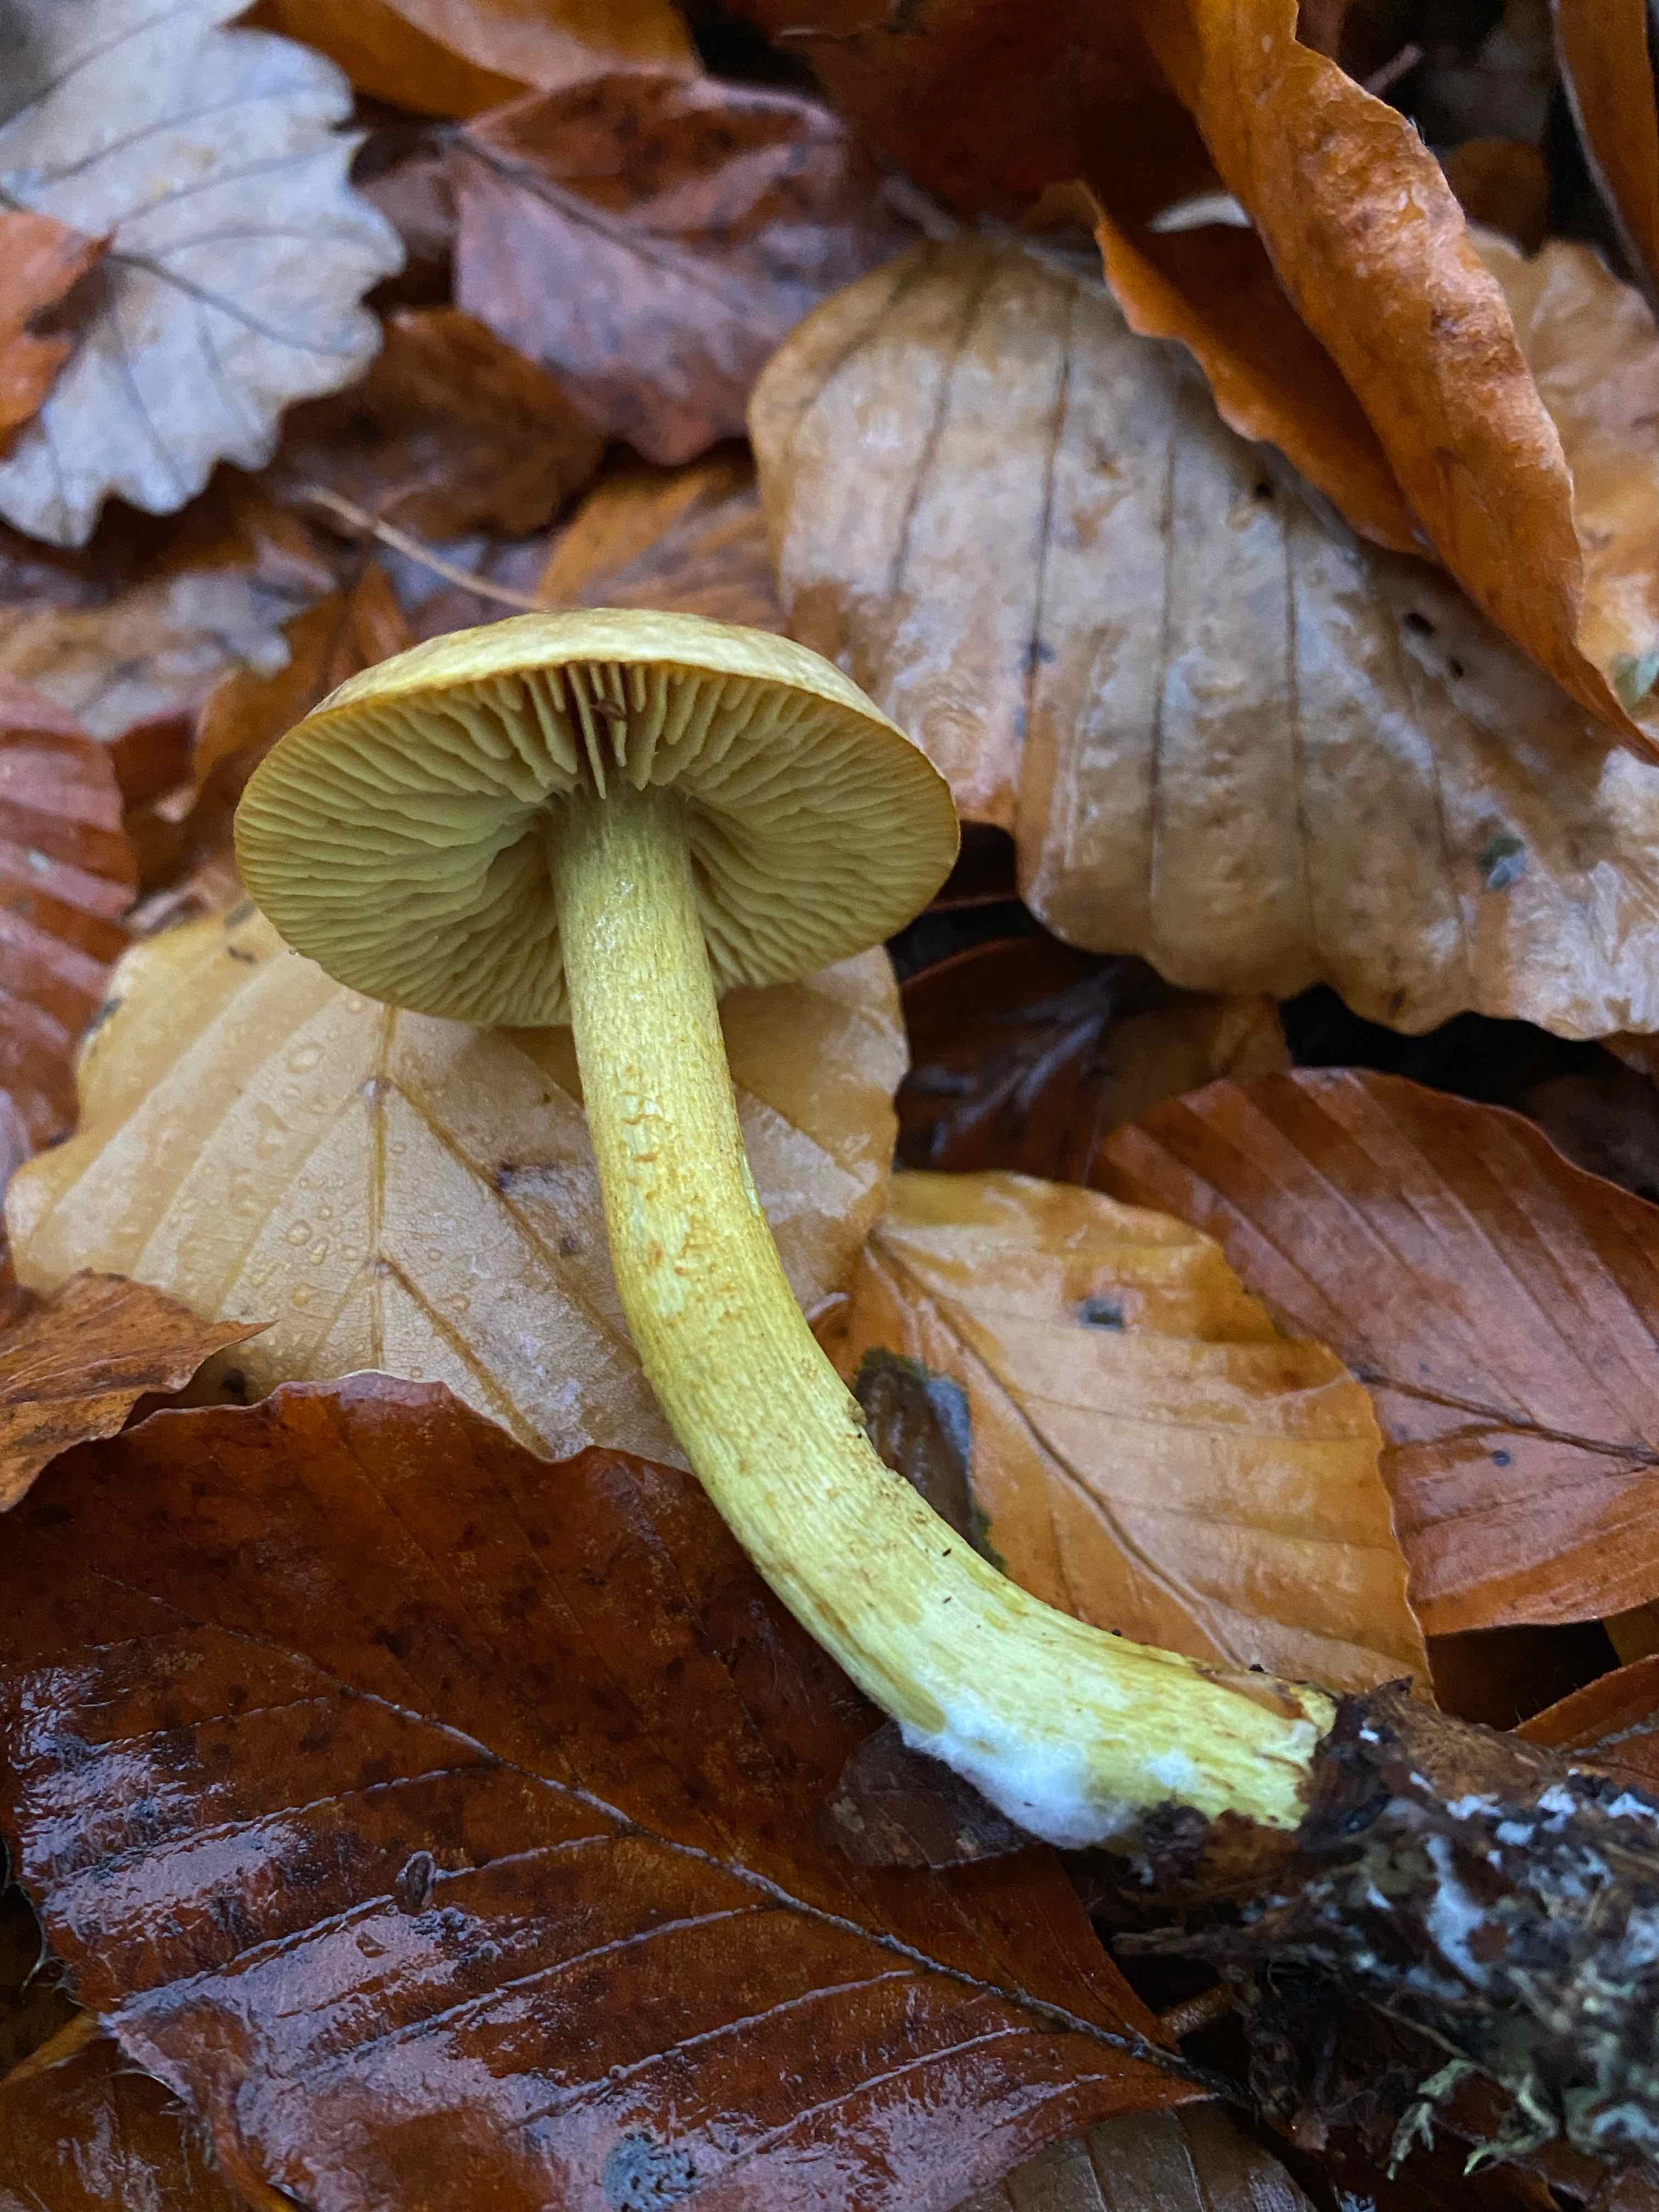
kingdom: Fungi
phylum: Basidiomycota
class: Agaricomycetes
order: Agaricales
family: Tricholomataceae
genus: Tricholoma
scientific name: Tricholoma sulphureum
